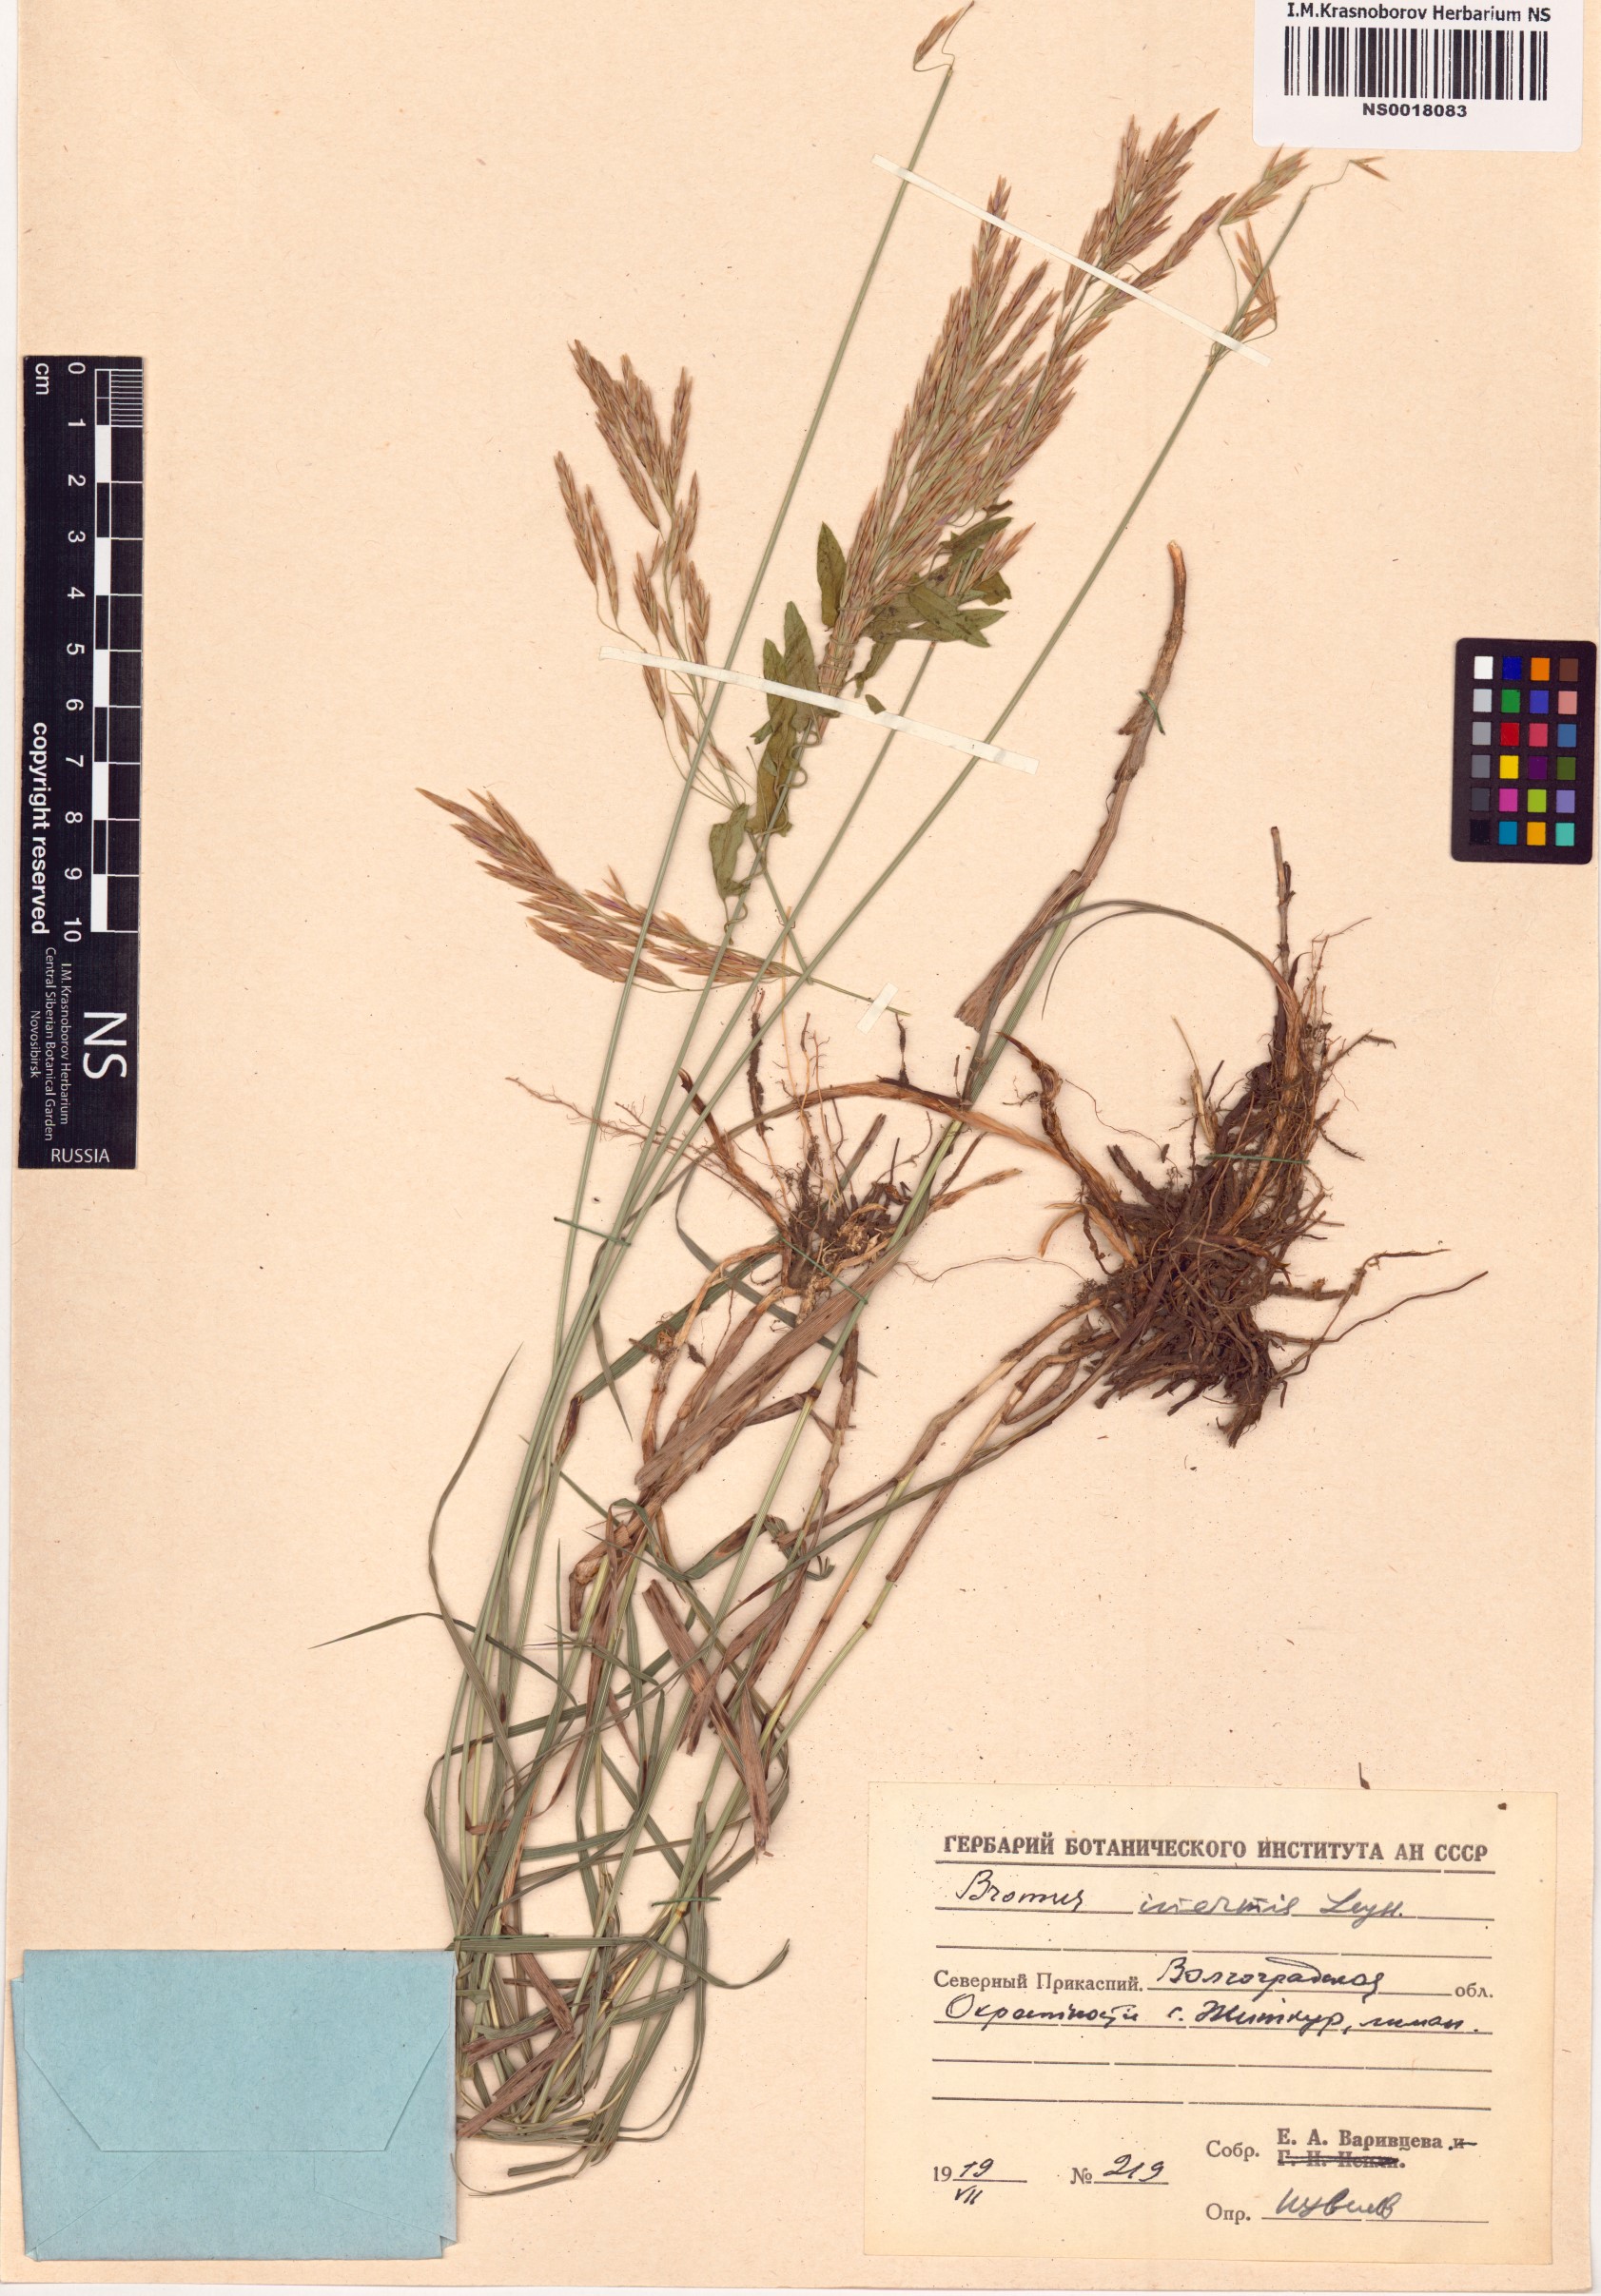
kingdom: Plantae
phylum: Tracheophyta
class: Liliopsida
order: Poales
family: Poaceae
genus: Bromus
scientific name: Bromus inermis
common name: Smooth brome
